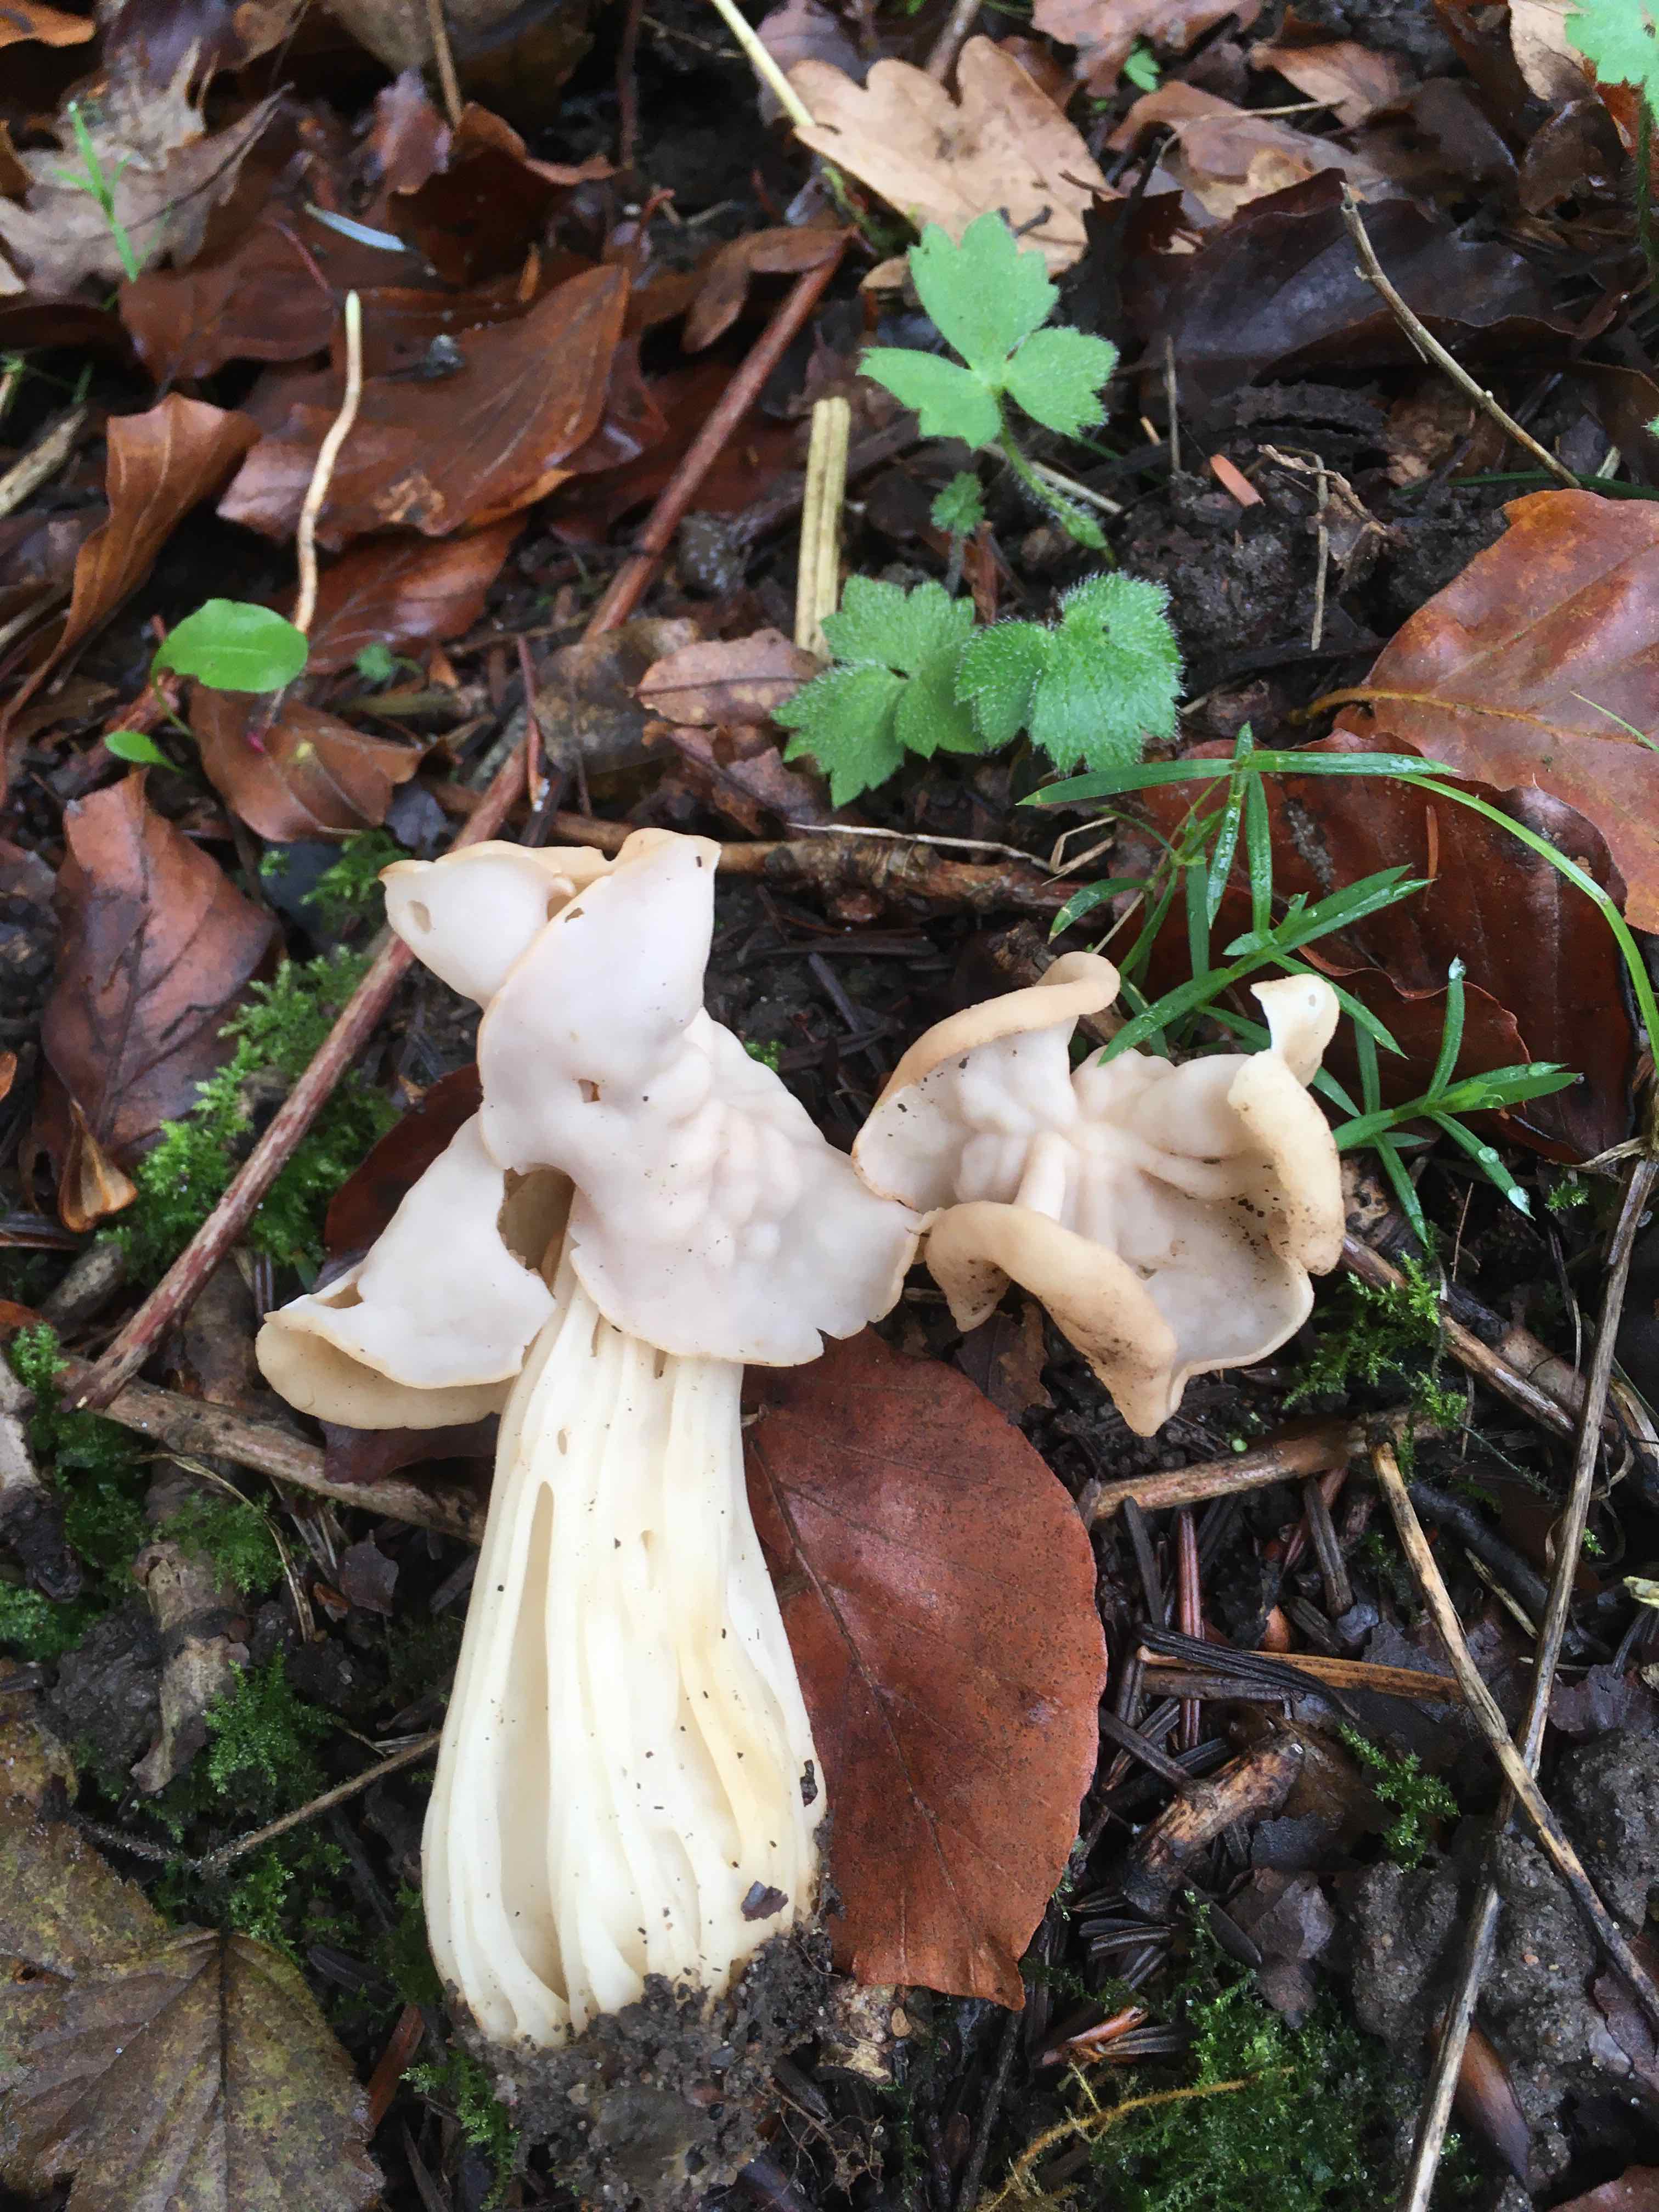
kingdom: Fungi
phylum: Ascomycota
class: Pezizomycetes
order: Pezizales
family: Helvellaceae
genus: Helvella
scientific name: Helvella crispa
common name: kruset foldhat
